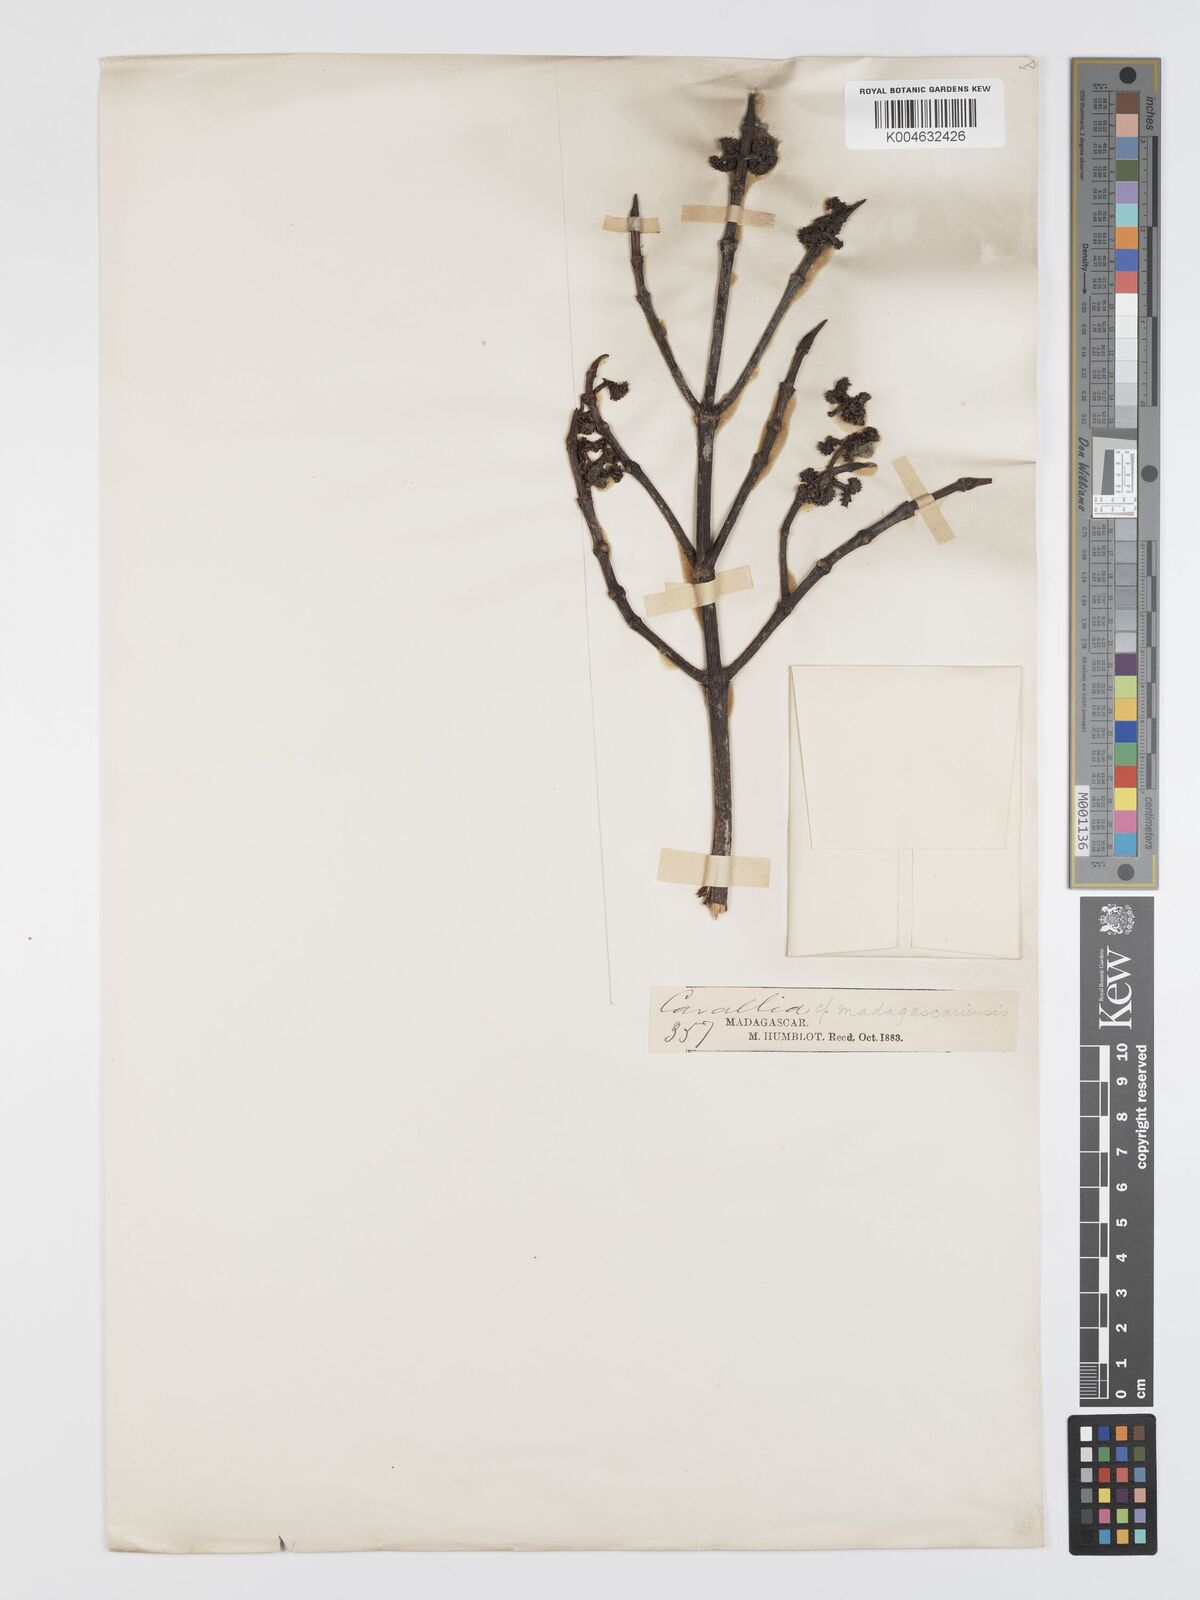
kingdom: Plantae
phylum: Tracheophyta
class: Magnoliopsida
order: Malpighiales
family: Rhizophoraceae
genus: Carallia
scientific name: Carallia brachiata
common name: Carallawood
